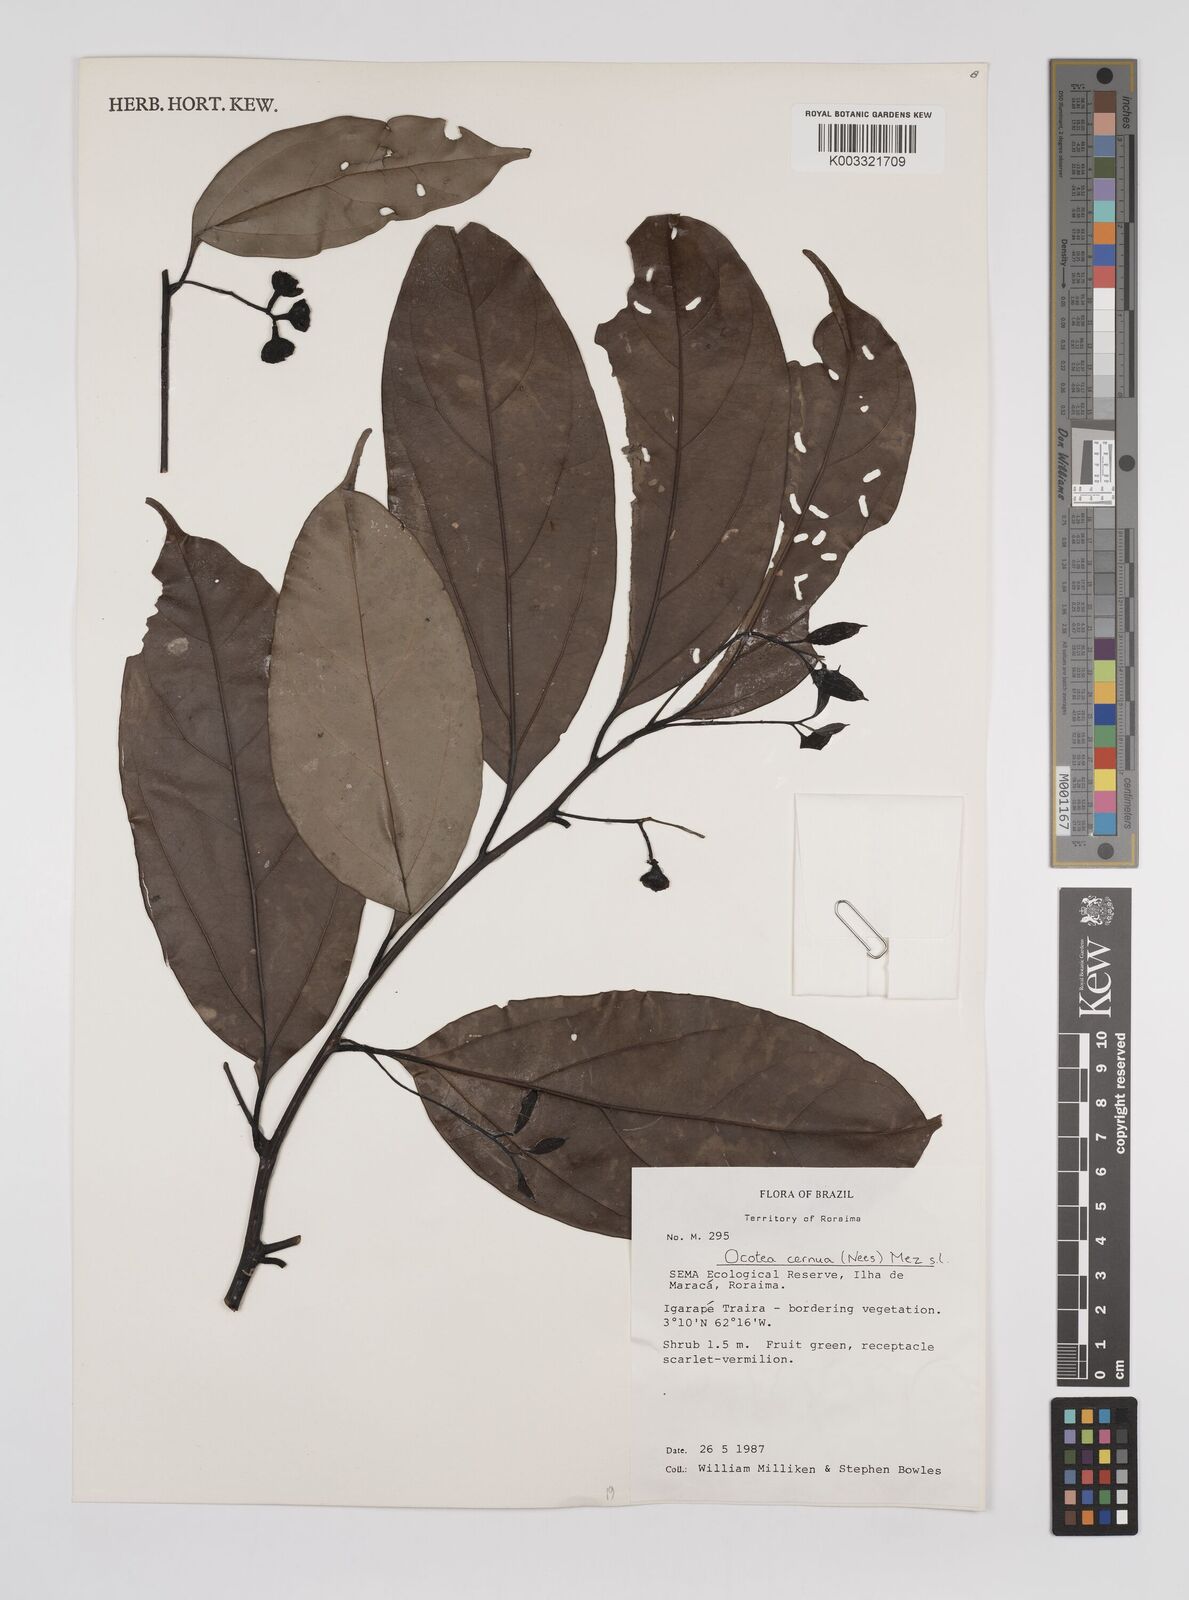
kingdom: Plantae
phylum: Tracheophyta
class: Magnoliopsida
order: Laurales
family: Lauraceae
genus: Ocotea
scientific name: Ocotea leptobotra
